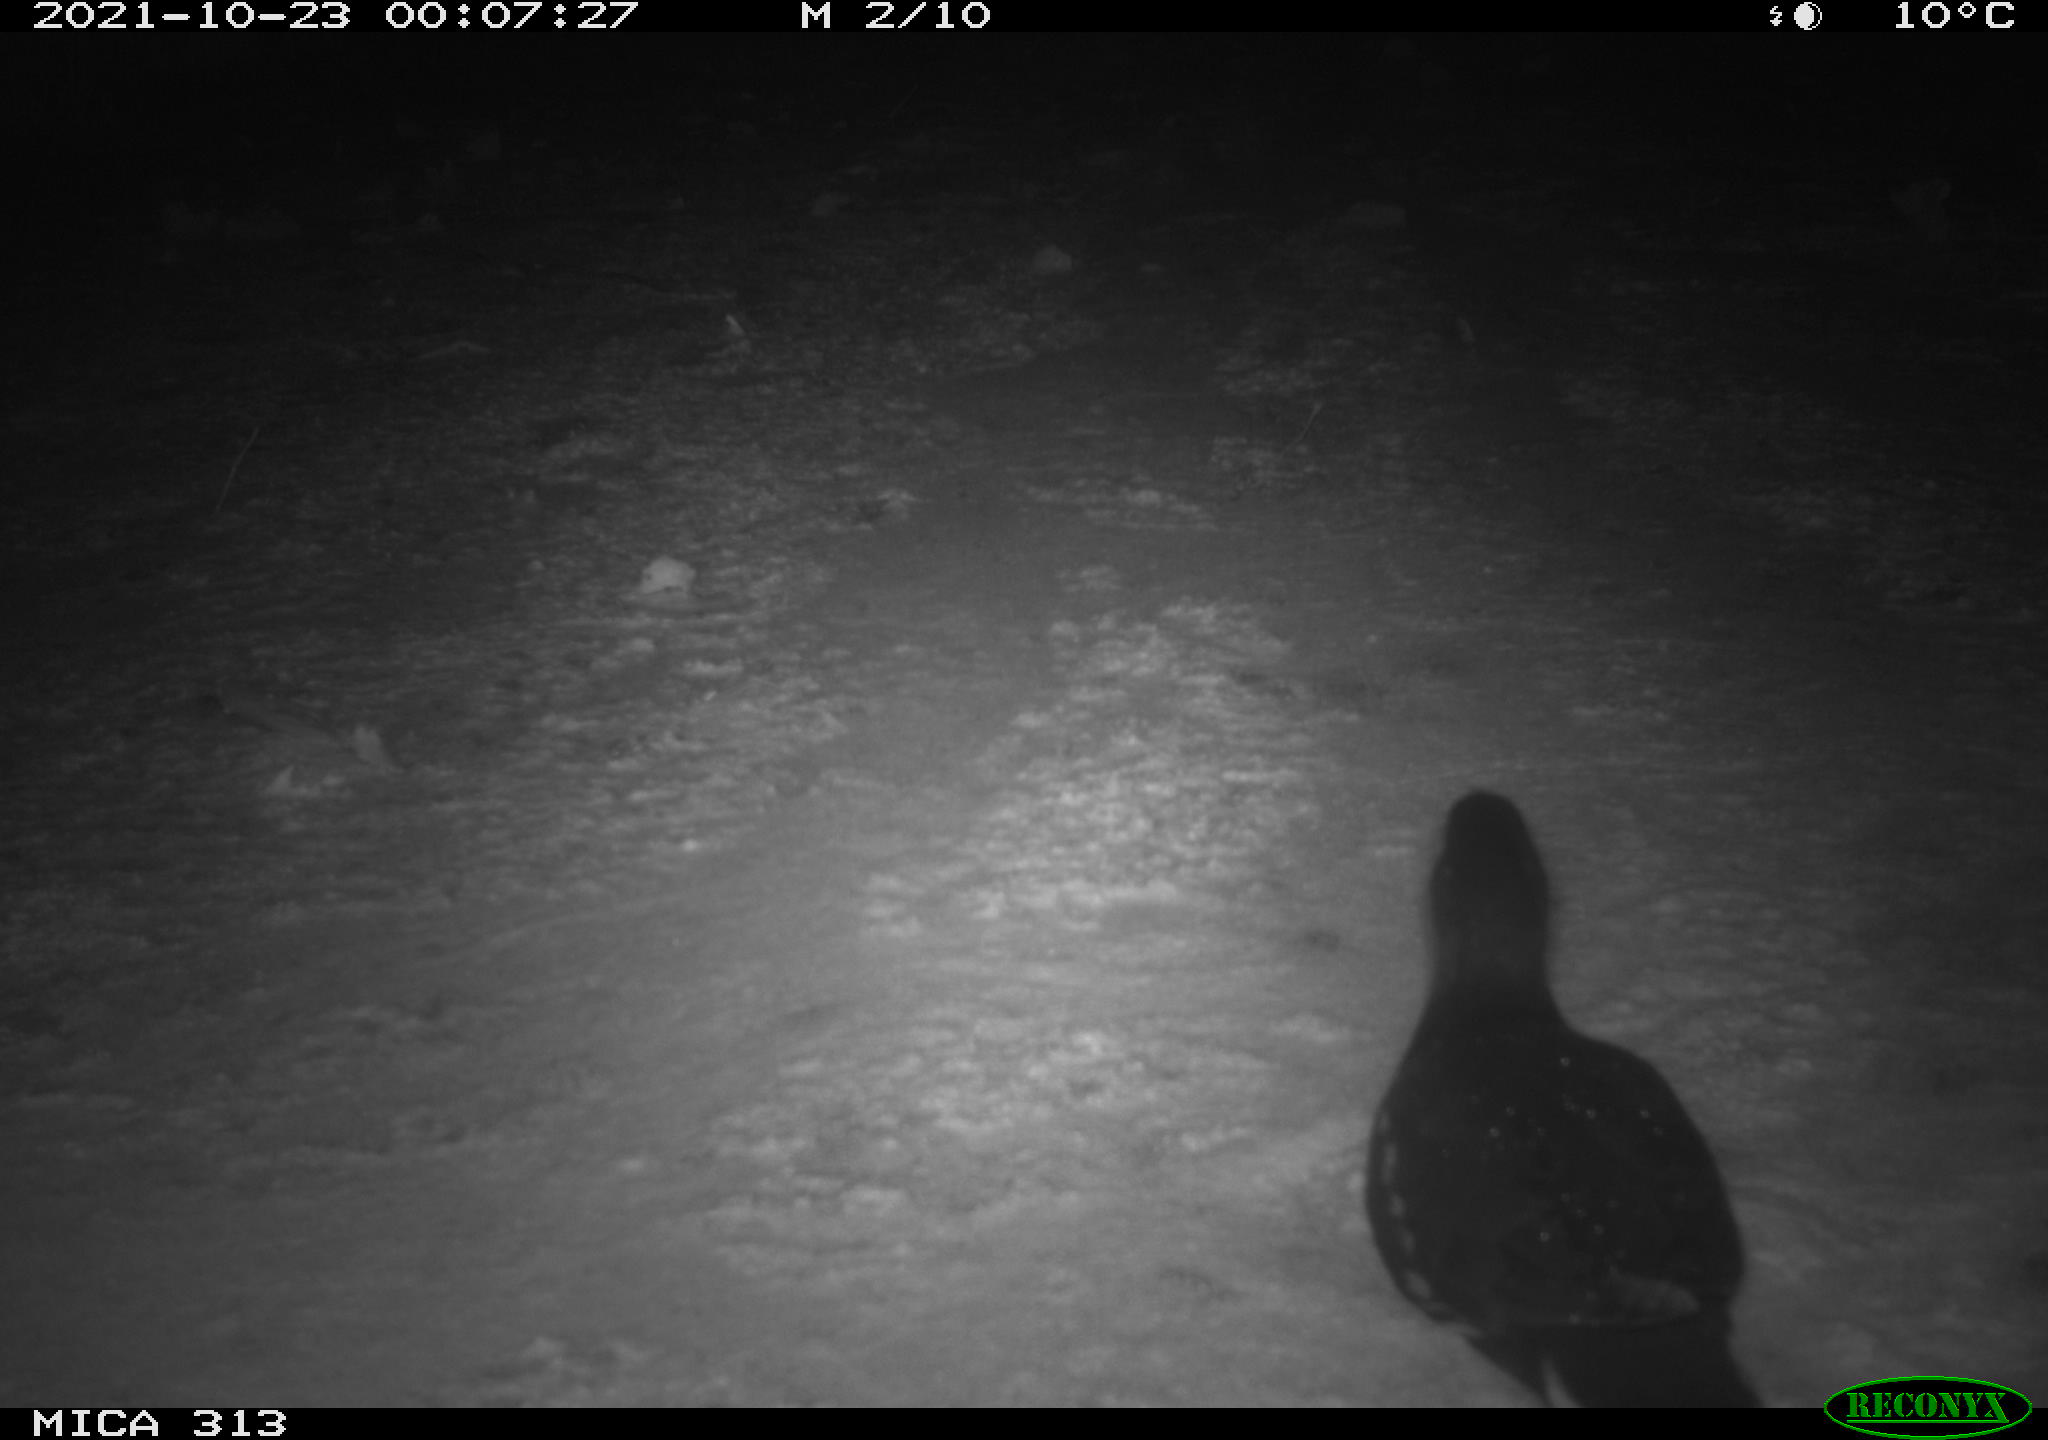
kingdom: Animalia
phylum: Chordata
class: Aves
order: Gruiformes
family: Rallidae
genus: Gallinula
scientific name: Gallinula chloropus
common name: Common moorhen
